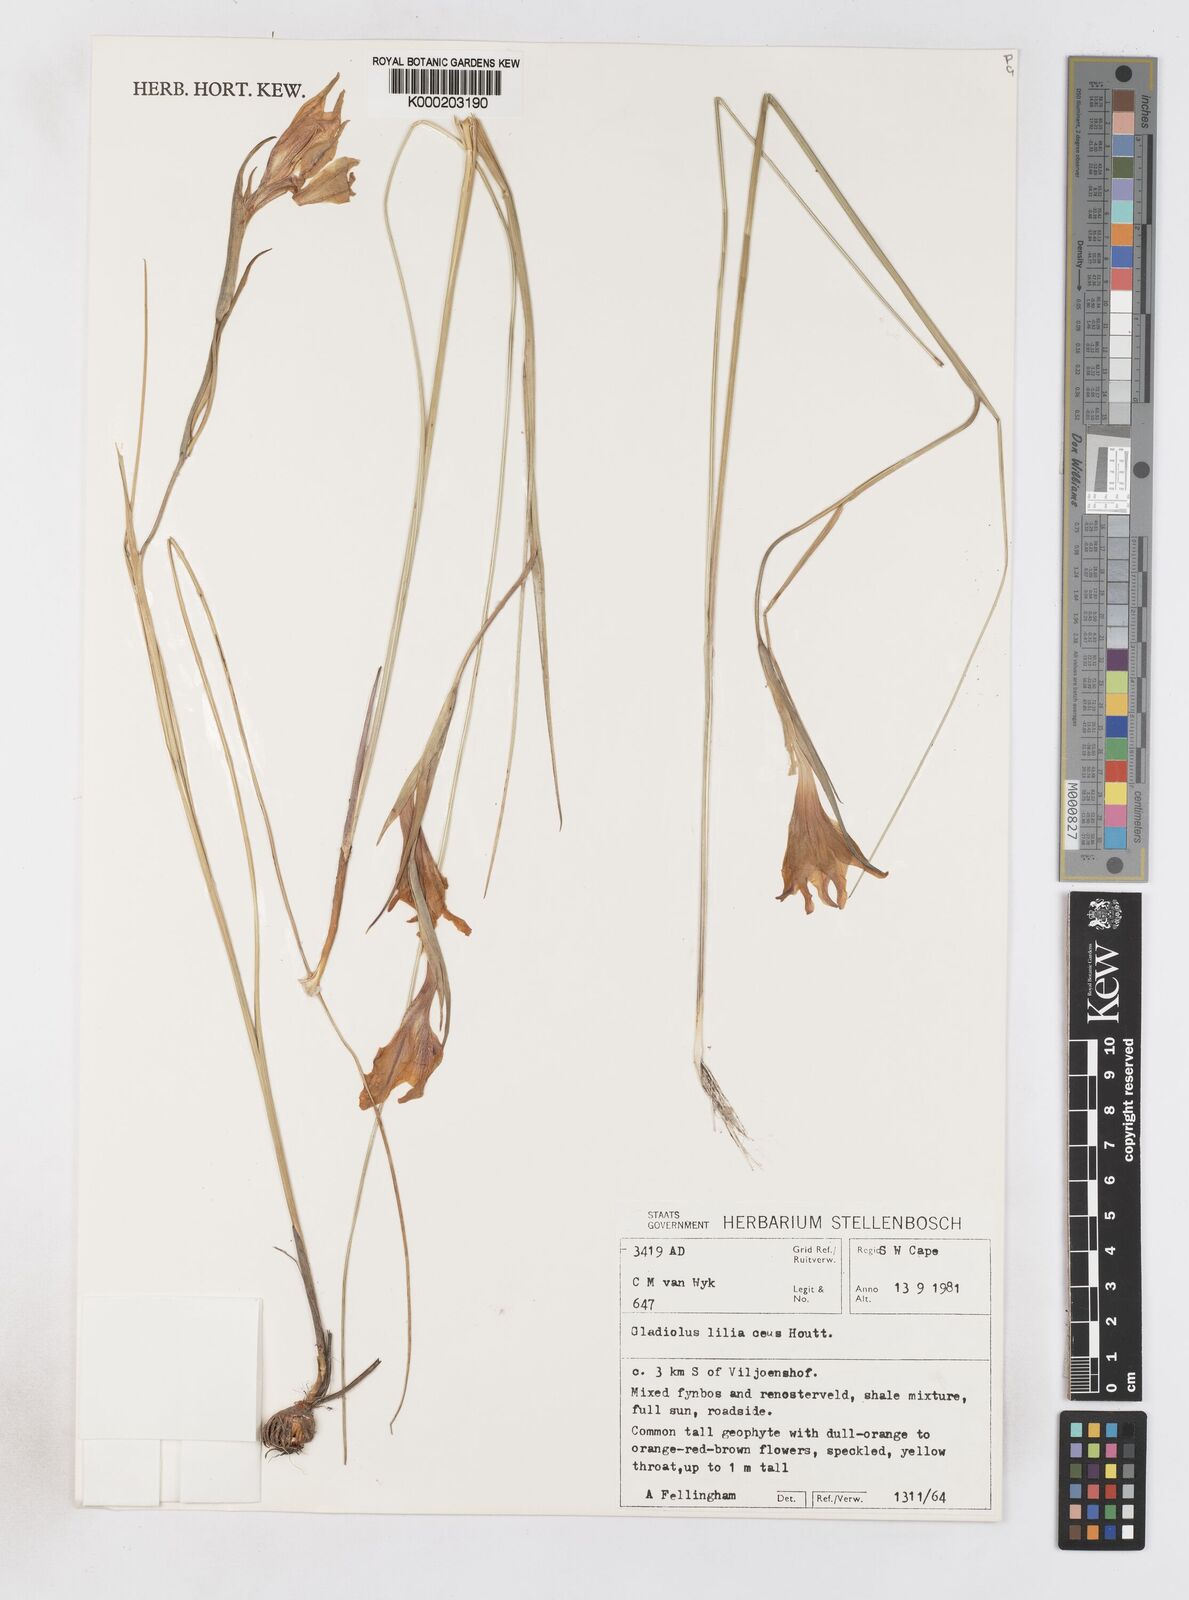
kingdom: Plantae
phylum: Tracheophyta
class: Liliopsida
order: Asparagales
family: Iridaceae
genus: Gladiolus
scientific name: Gladiolus liliaceus
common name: Large brown afrikaner
